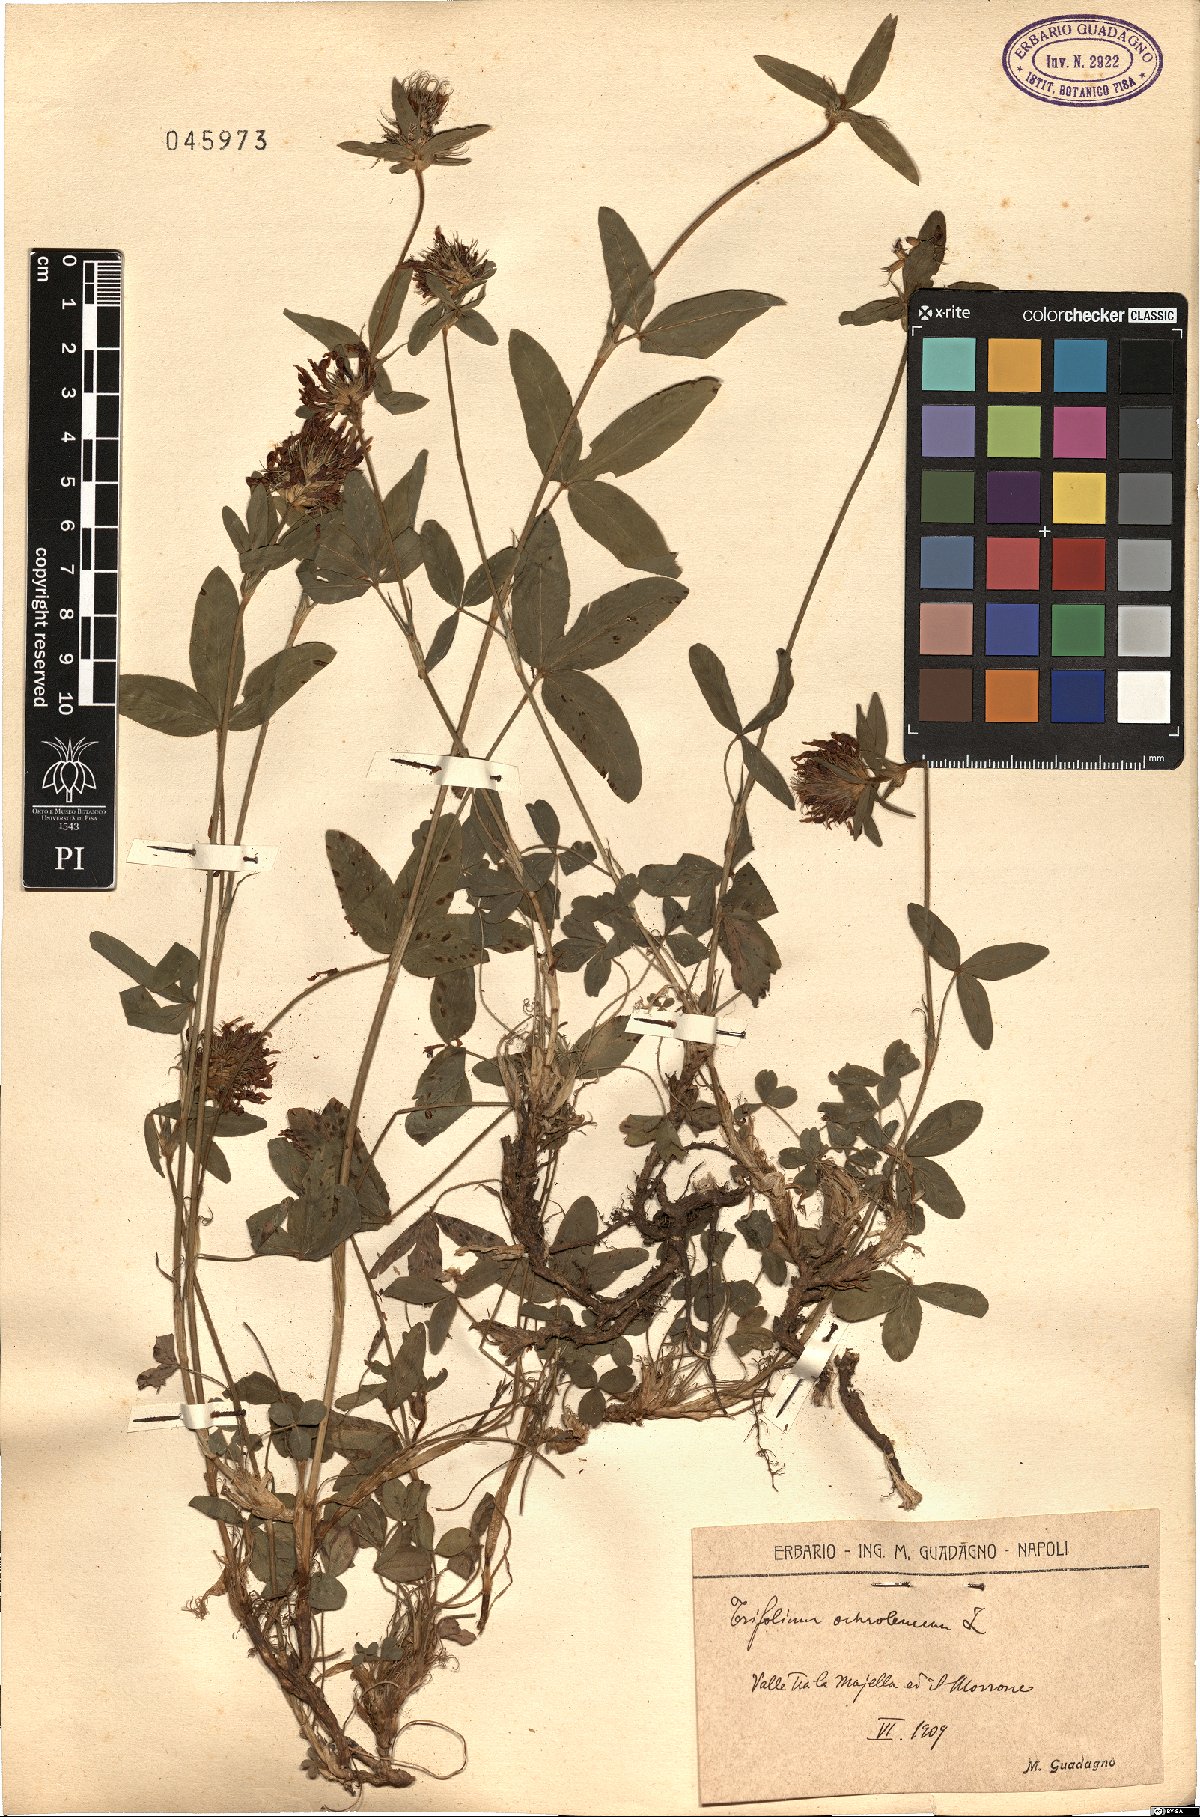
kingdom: Plantae
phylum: Tracheophyta
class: Magnoliopsida
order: Fabales
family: Fabaceae
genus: Trifolium
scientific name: Trifolium ochroleucon
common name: Sulphur clover
